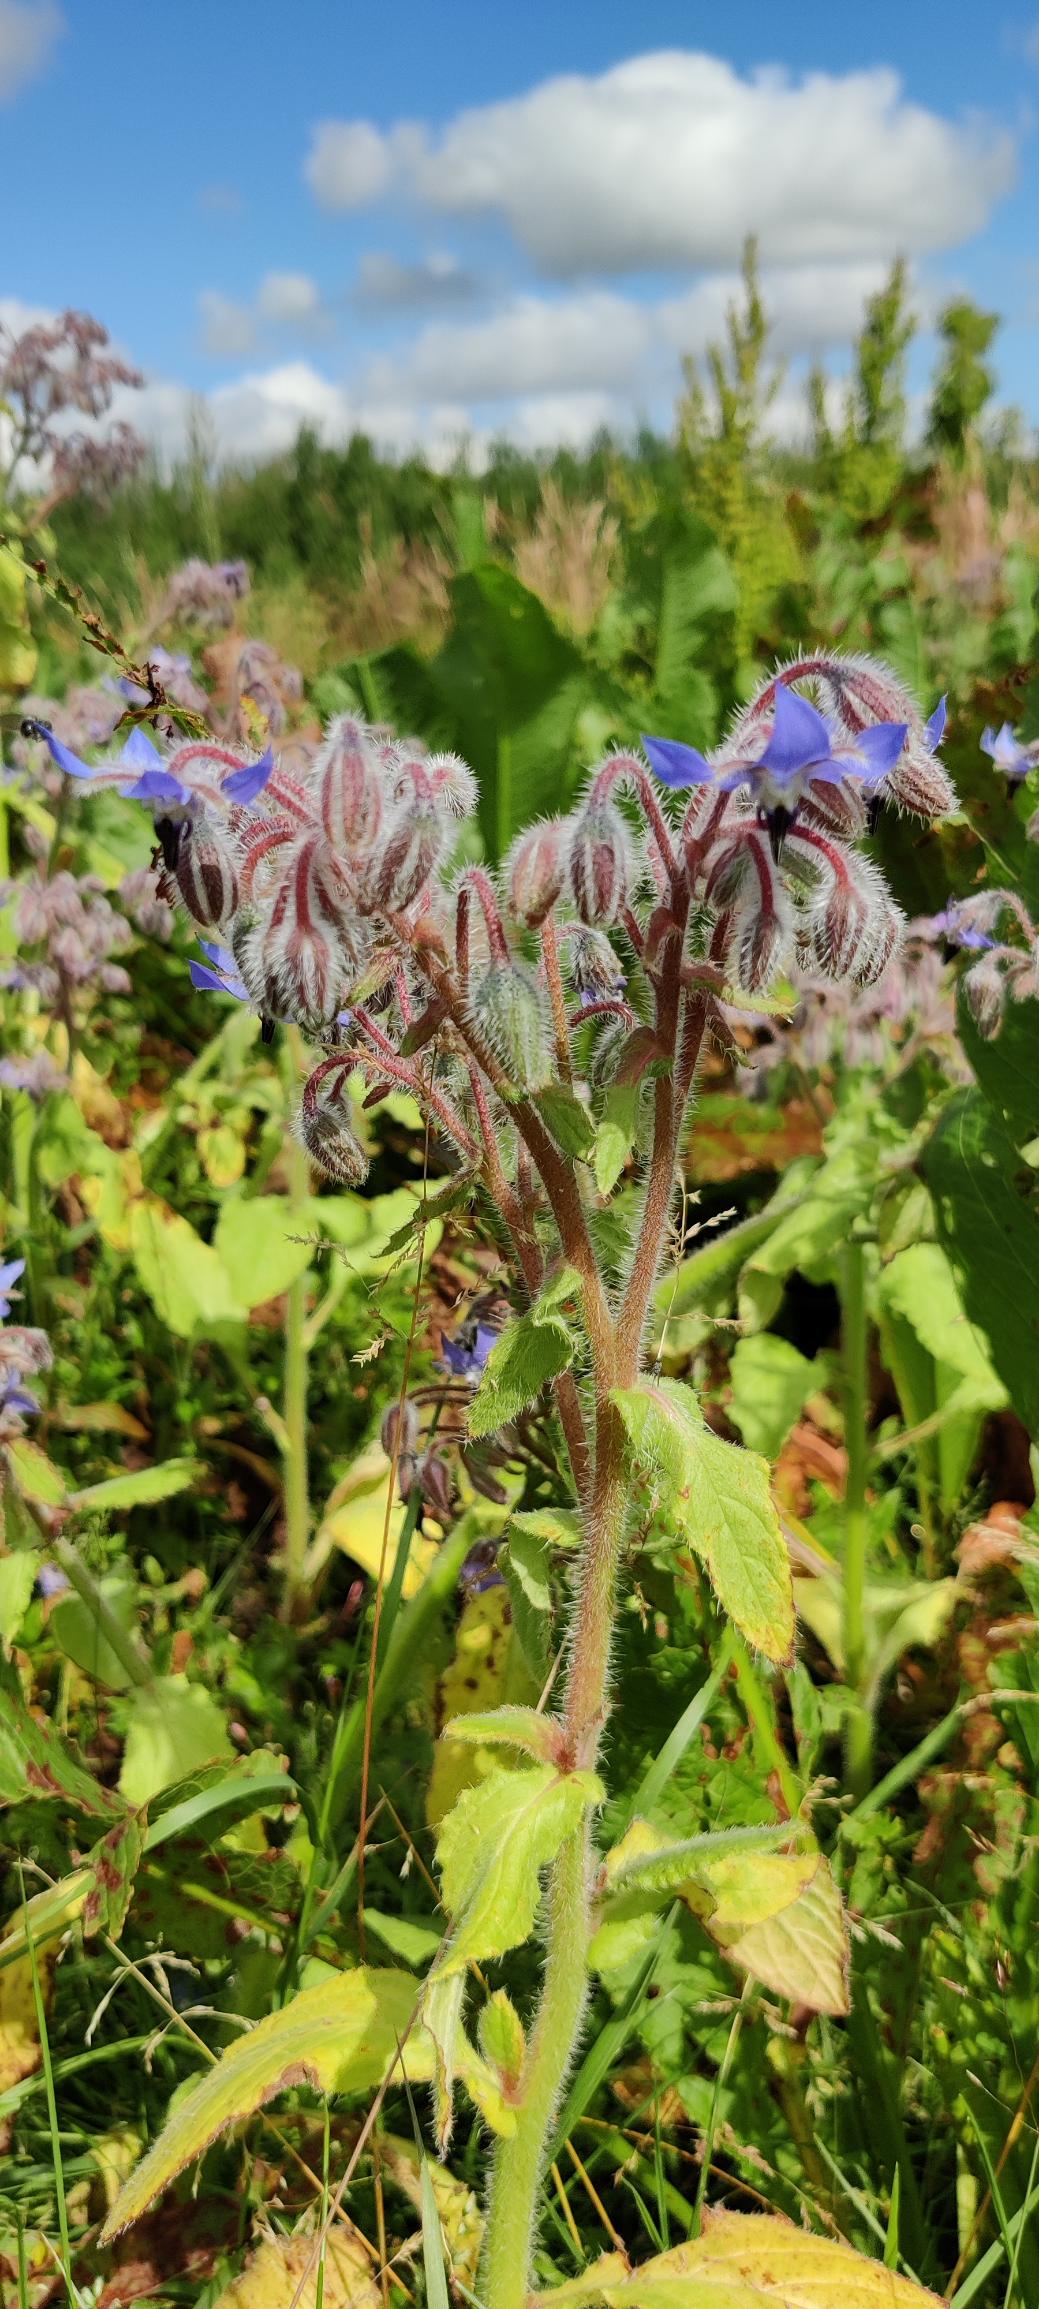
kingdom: Plantae
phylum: Tracheophyta
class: Magnoliopsida
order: Boraginales
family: Boraginaceae
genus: Borago
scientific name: Borago officinalis
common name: Hjulkrone
